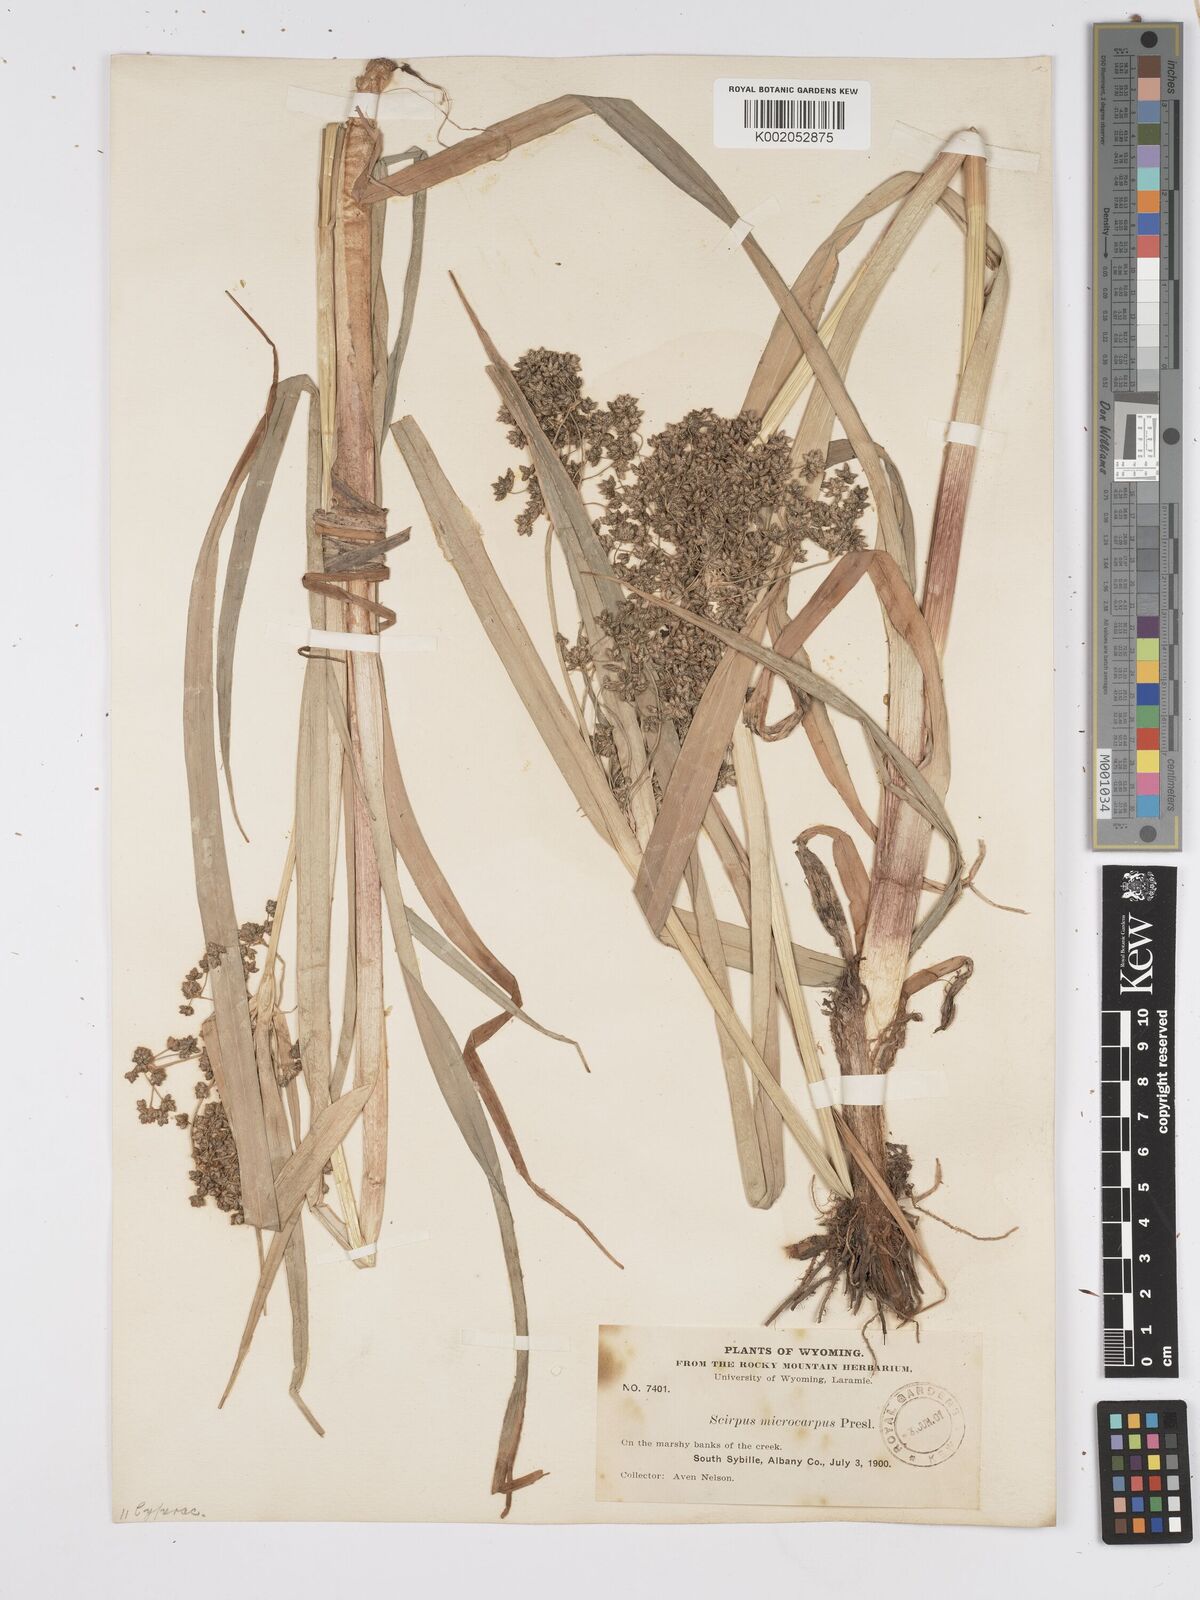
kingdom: Plantae
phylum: Tracheophyta
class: Liliopsida
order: Poales
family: Cyperaceae
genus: Scirpus
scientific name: Scirpus sylvaticus
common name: Wood club-rush
